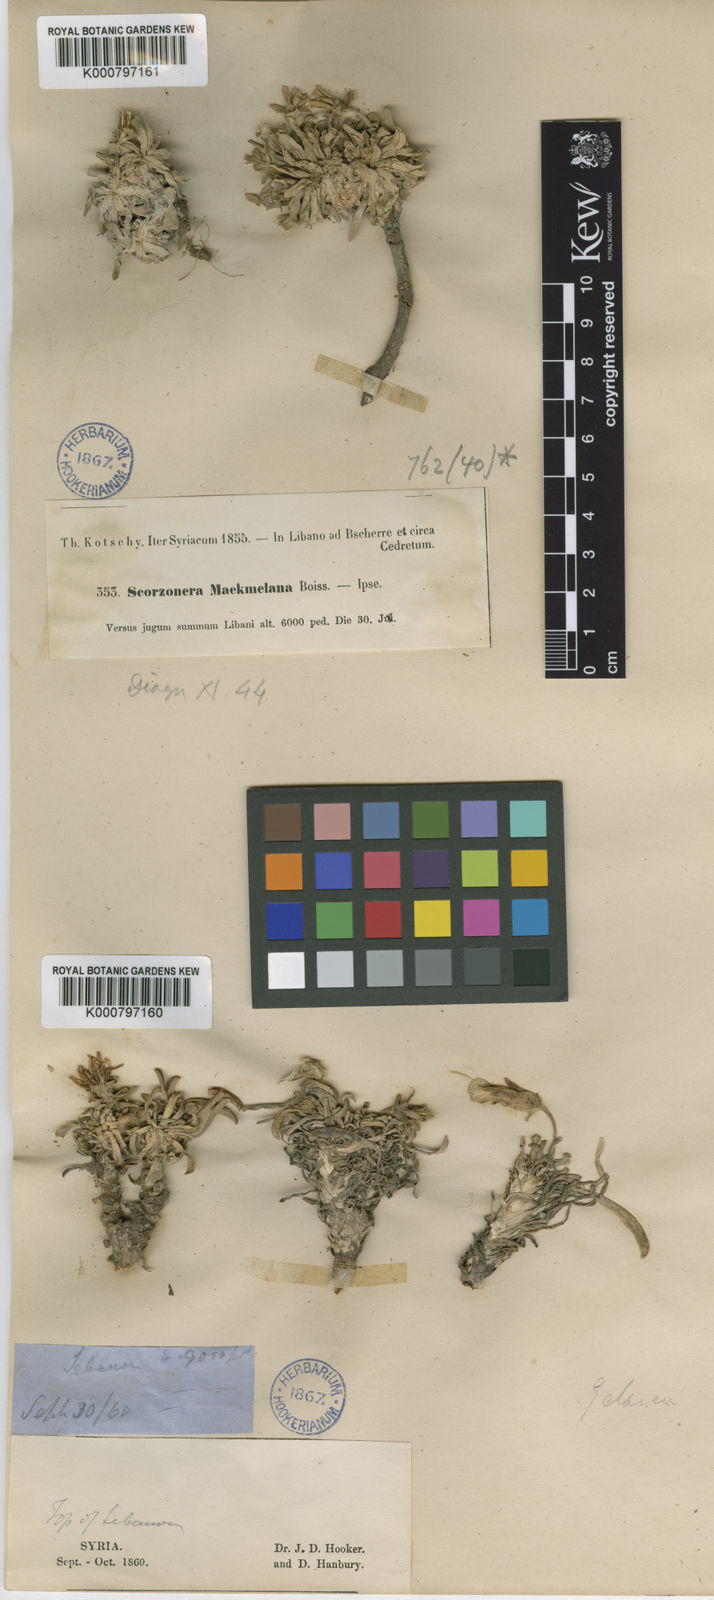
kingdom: Plantae
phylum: Tracheophyta
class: Magnoliopsida
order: Asterales
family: Asteraceae
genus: Gelasia
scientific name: Gelasia mackmeliana
